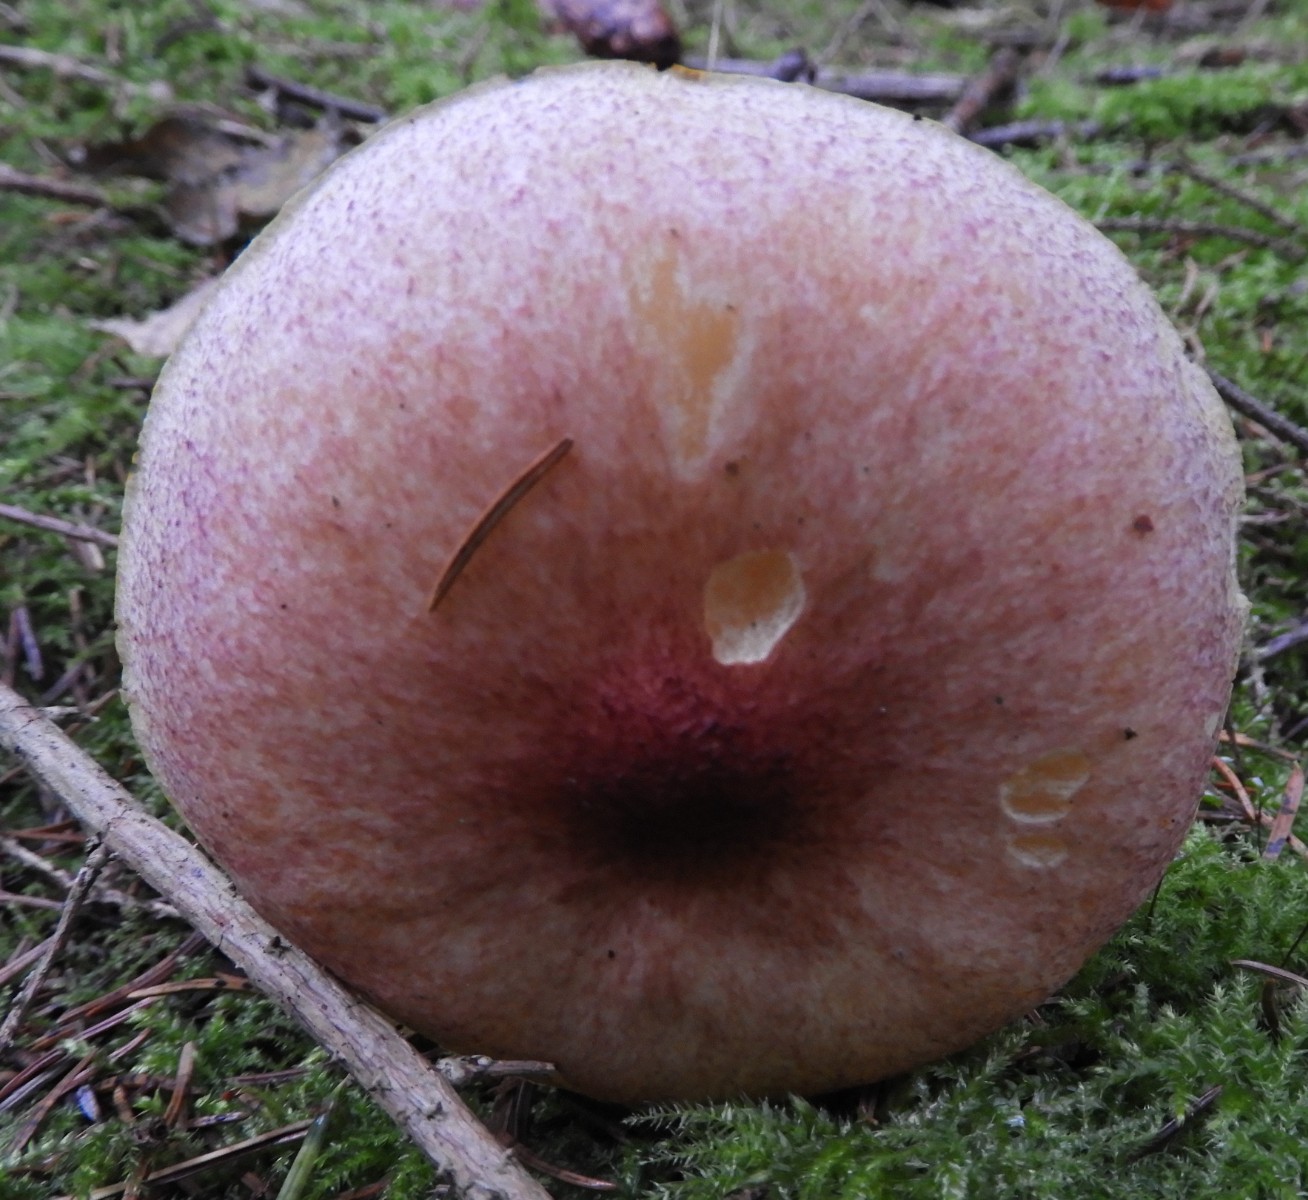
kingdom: Fungi
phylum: Basidiomycota
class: Agaricomycetes
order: Agaricales
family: Tricholomataceae
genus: Tricholomopsis
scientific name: Tricholomopsis rutilans
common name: purpur-væbnerhat
